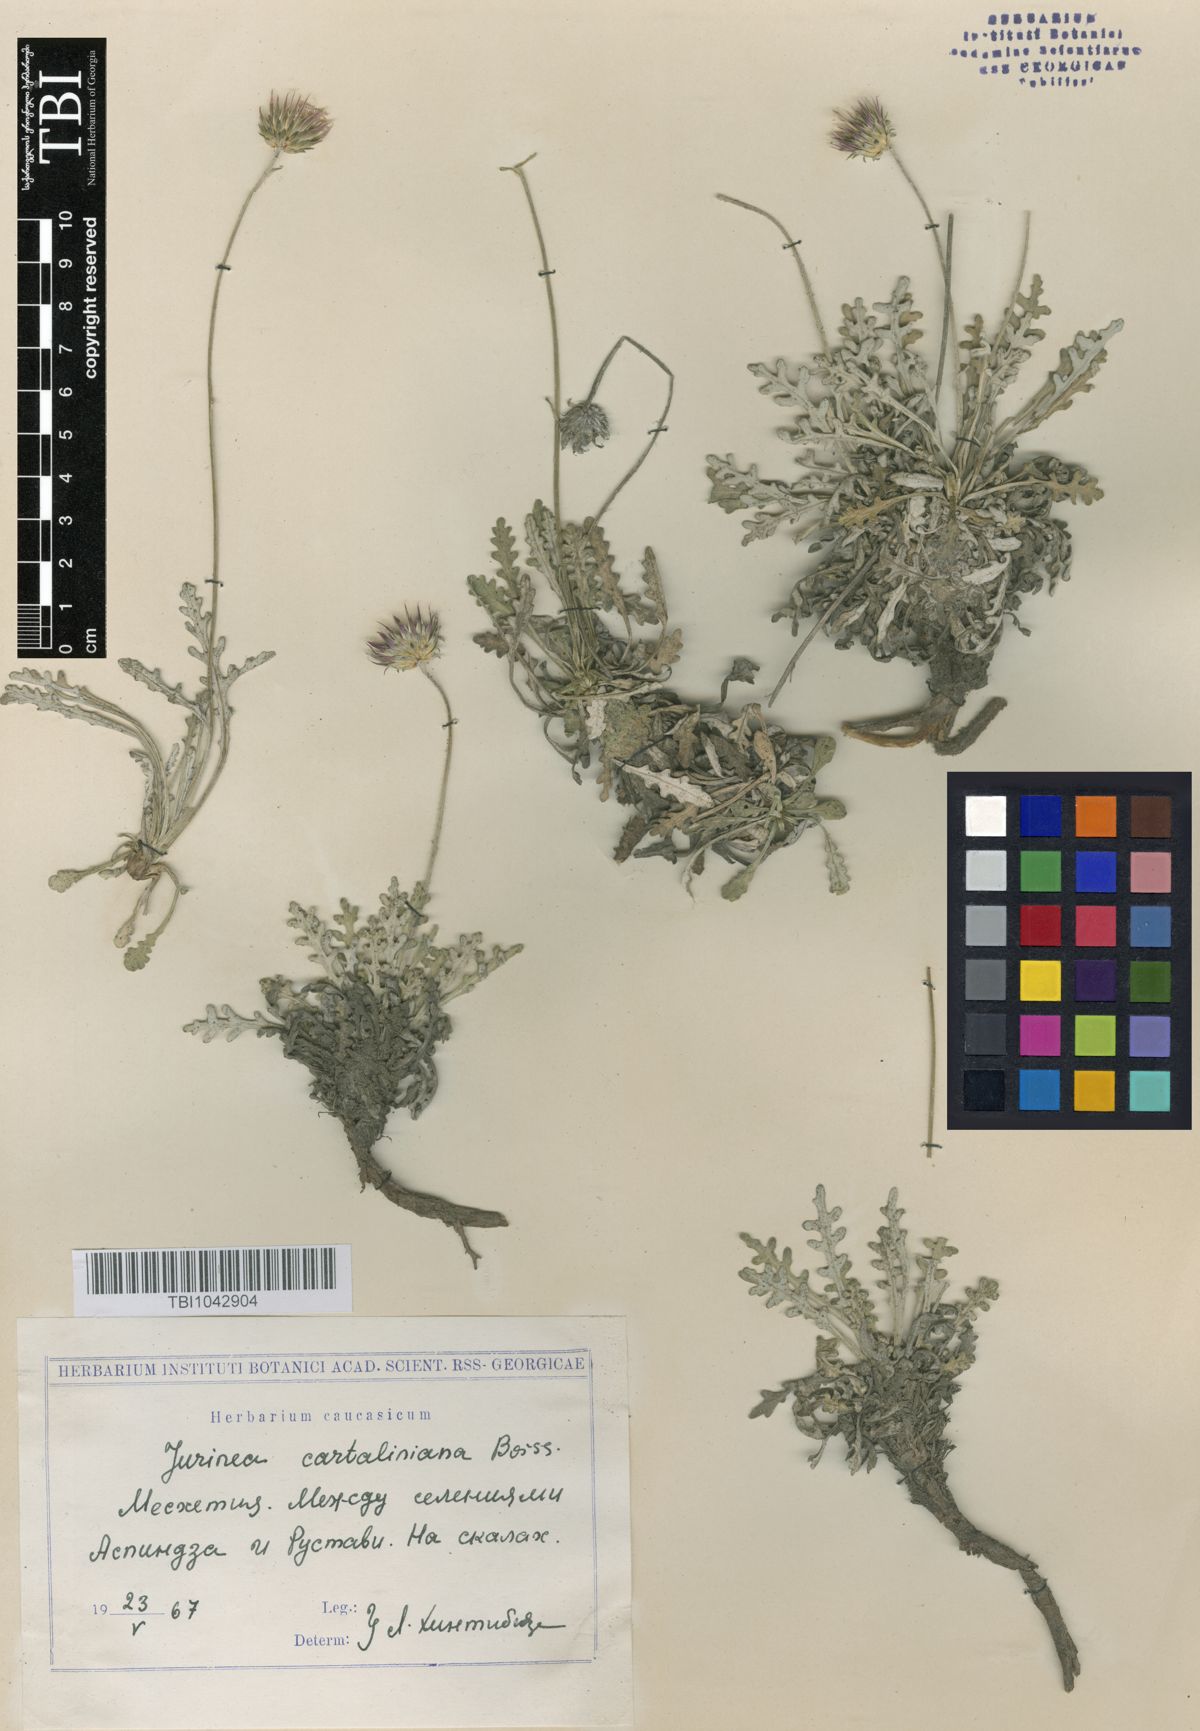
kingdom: Plantae
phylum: Tracheophyta
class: Magnoliopsida
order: Asterales
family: Asteraceae
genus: Jurinea
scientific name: Jurinea cartaliniana
